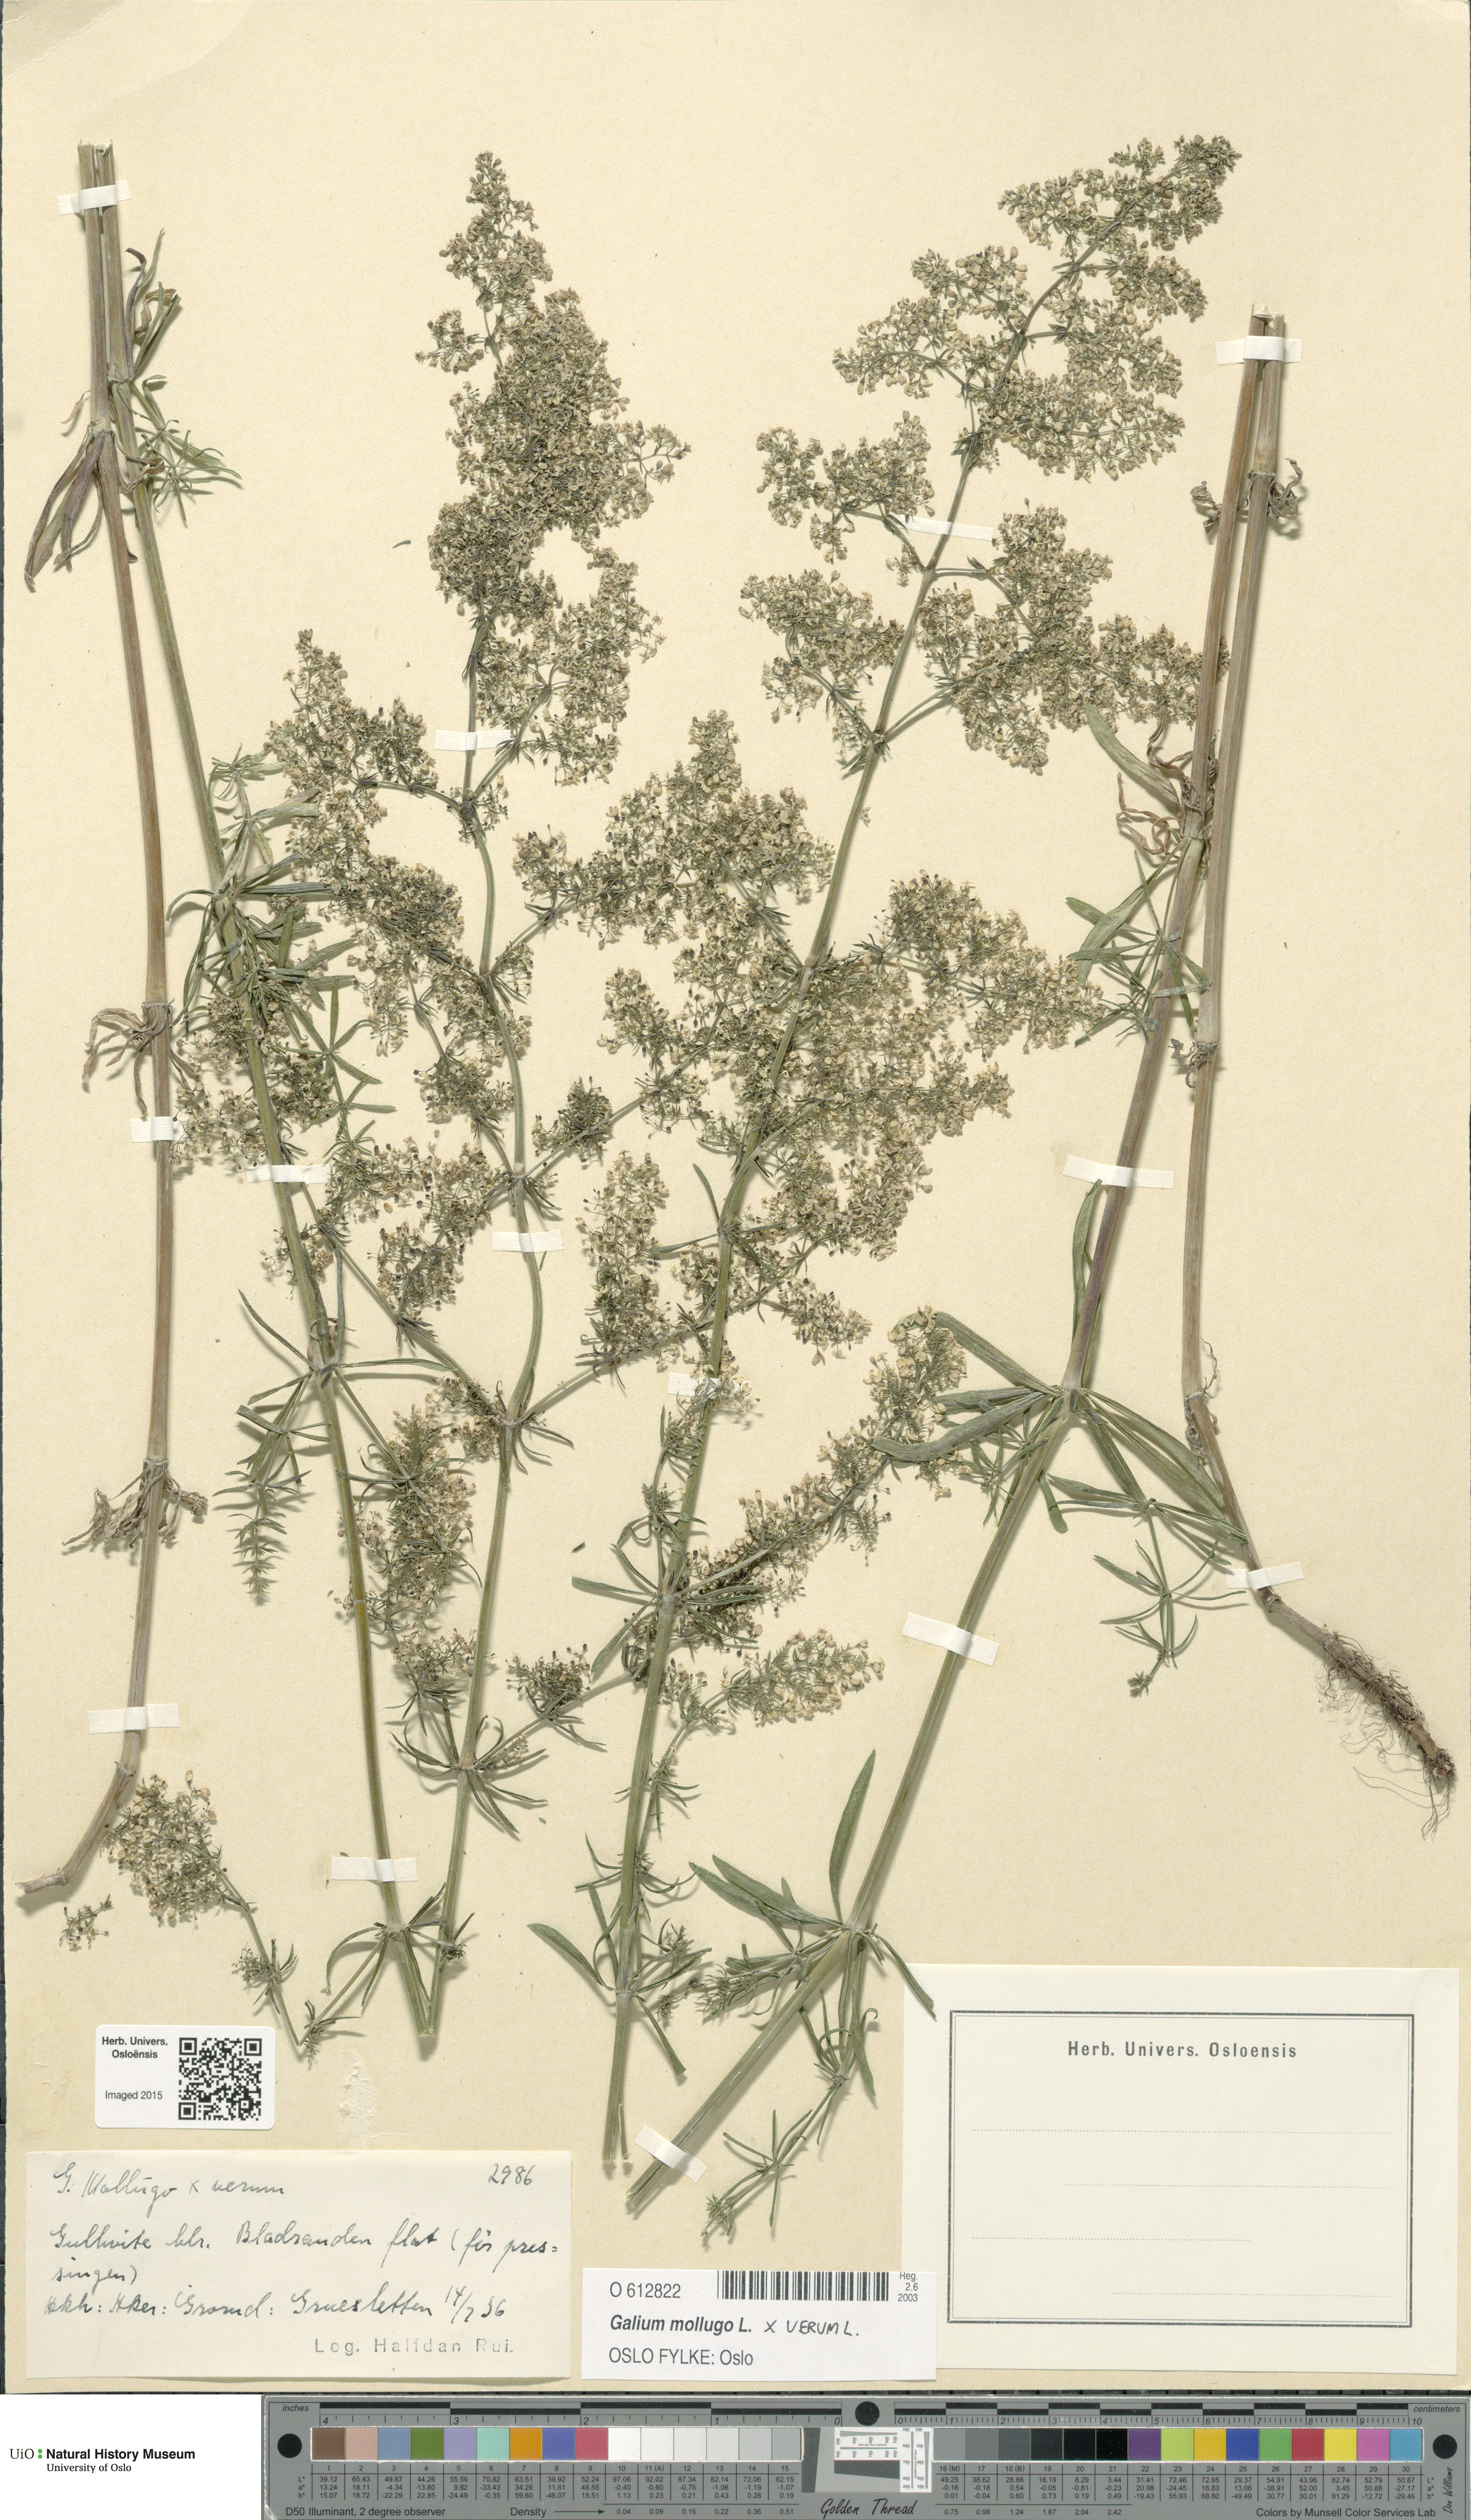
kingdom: Plantae
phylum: Tracheophyta
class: Magnoliopsida
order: Gentianales
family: Rubiaceae
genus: Galium
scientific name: Galium
